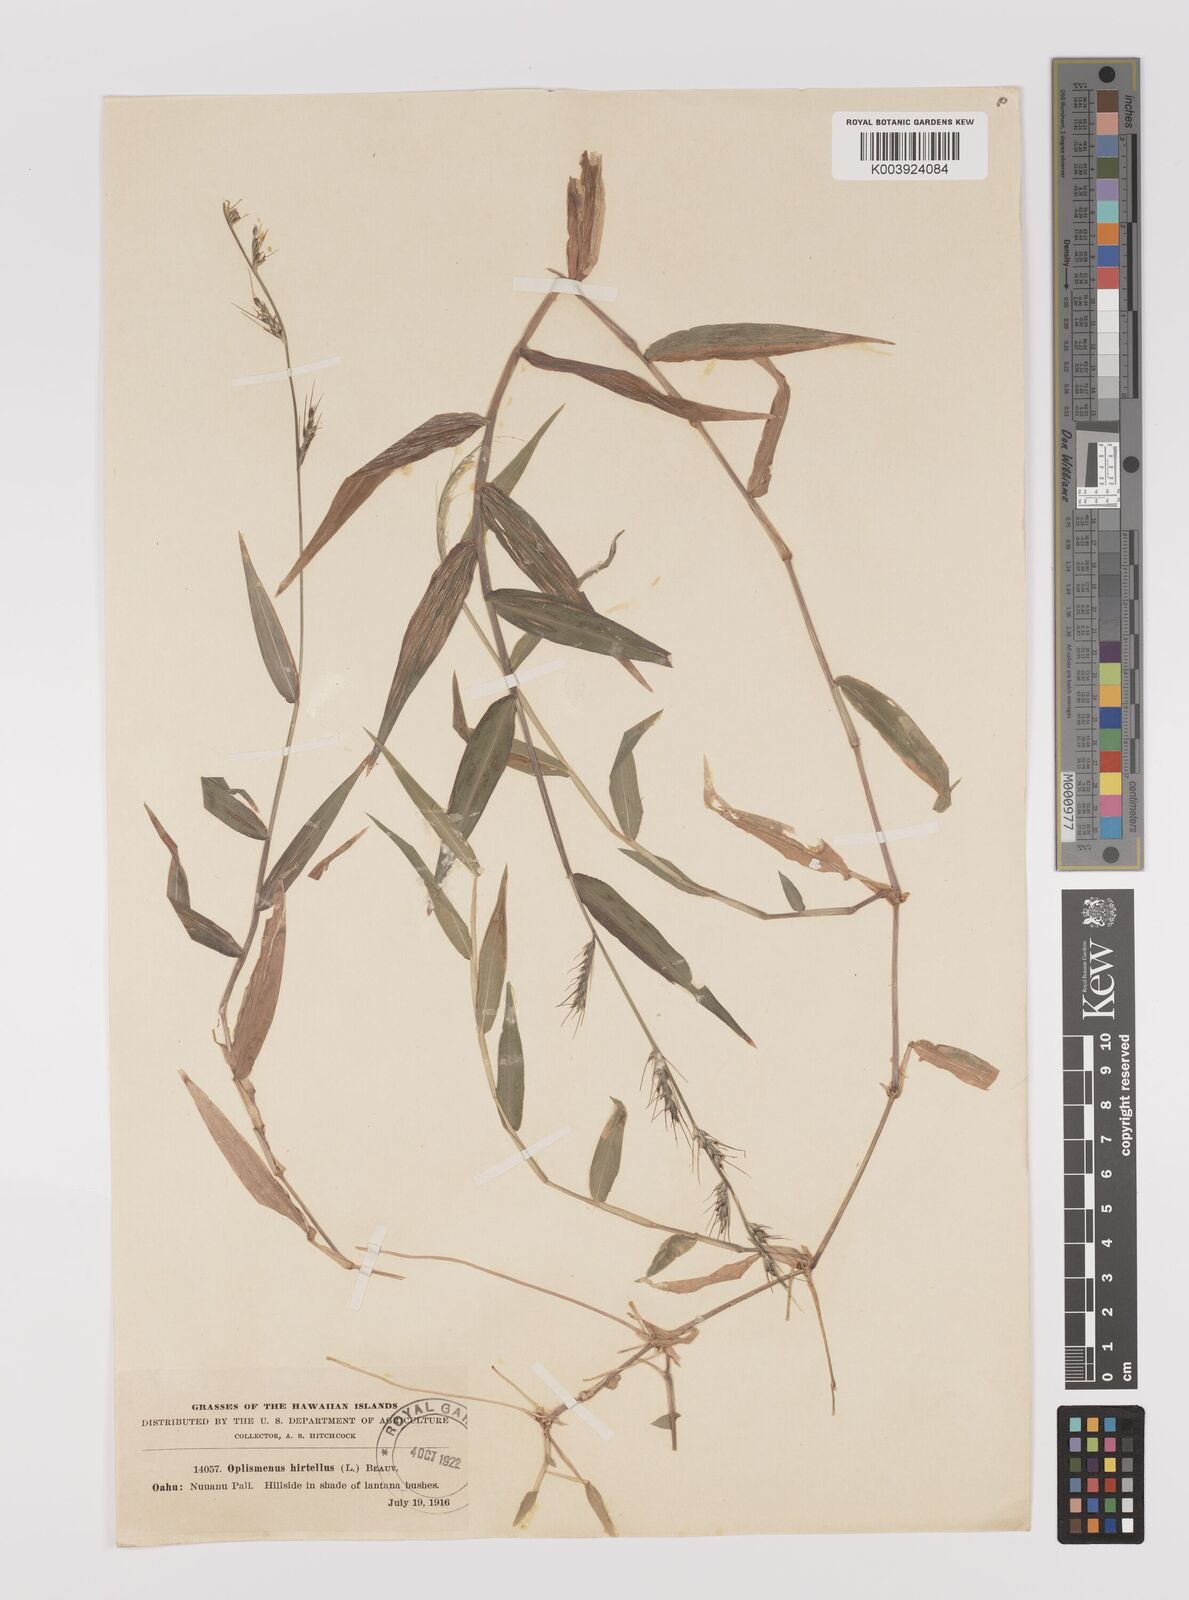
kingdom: Plantae
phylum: Tracheophyta
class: Liliopsida
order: Poales
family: Poaceae
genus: Oplismenus
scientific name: Oplismenus hirtellus
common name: Basketgrass
